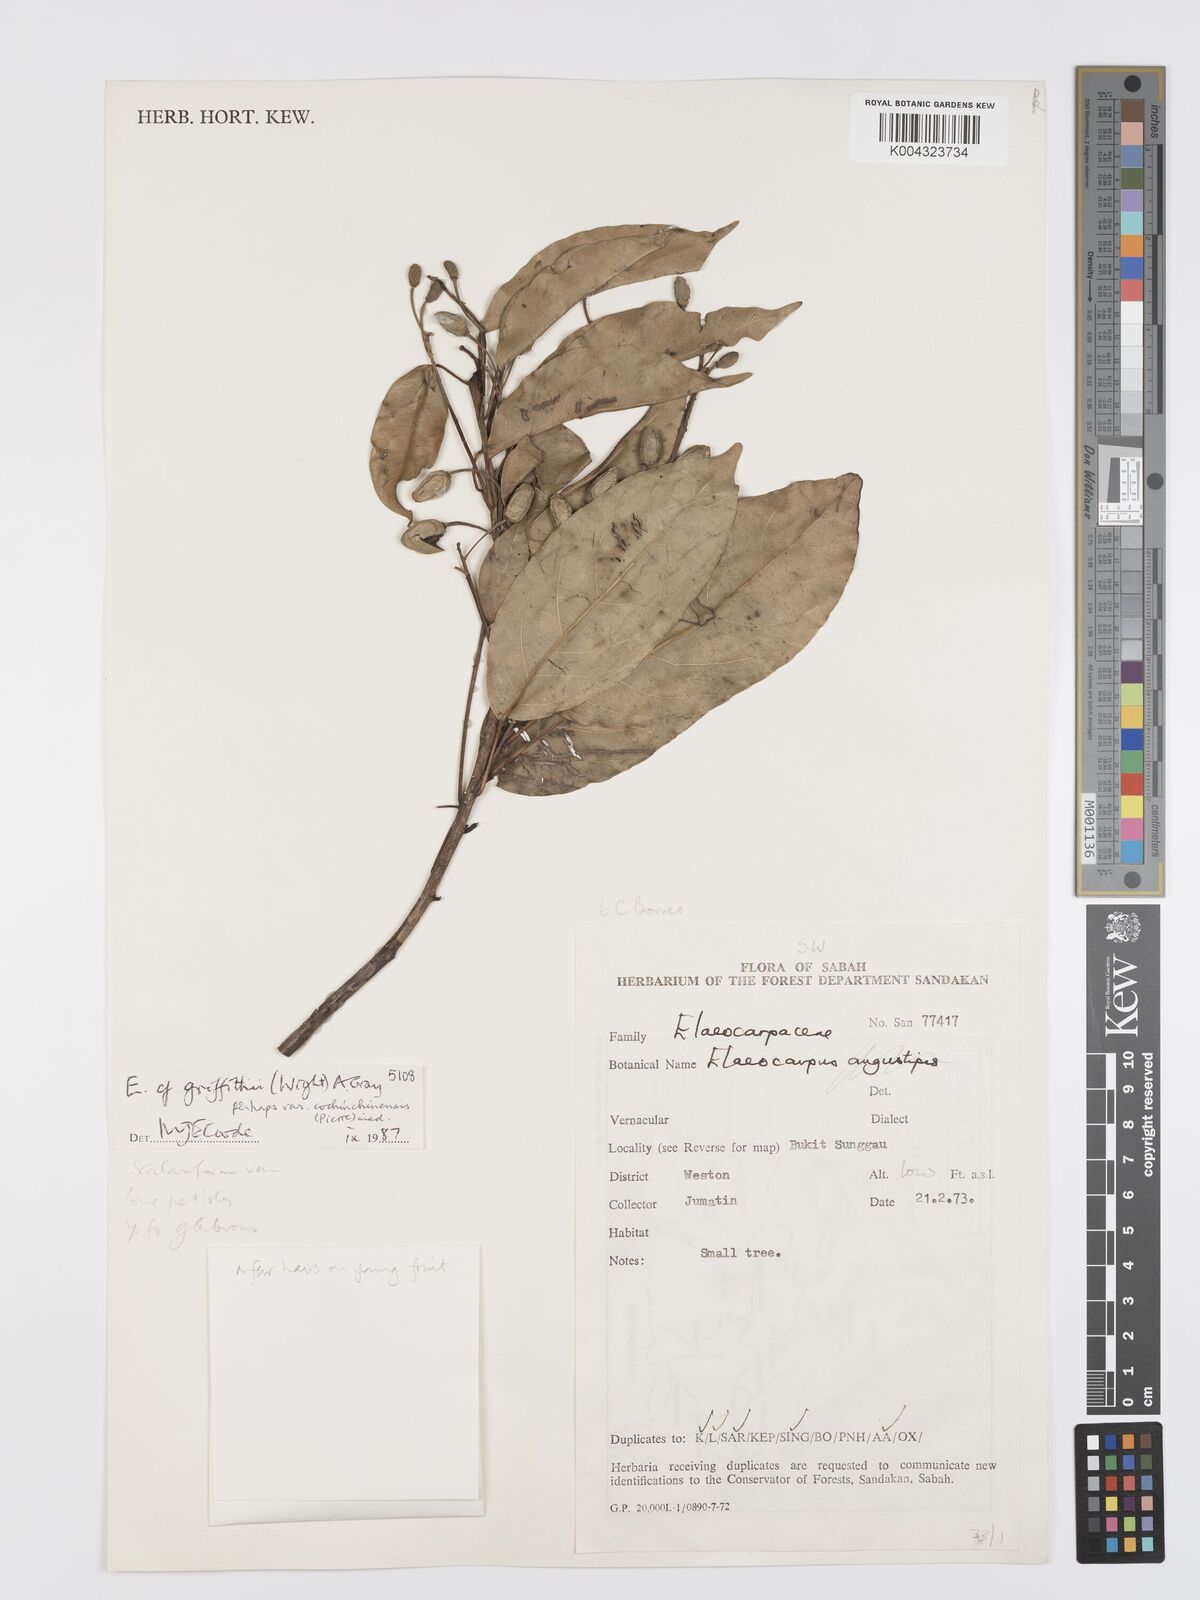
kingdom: Plantae
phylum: Tracheophyta
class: Magnoliopsida
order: Oxalidales
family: Elaeocarpaceae
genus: Elaeocarpus
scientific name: Elaeocarpus griffithii
